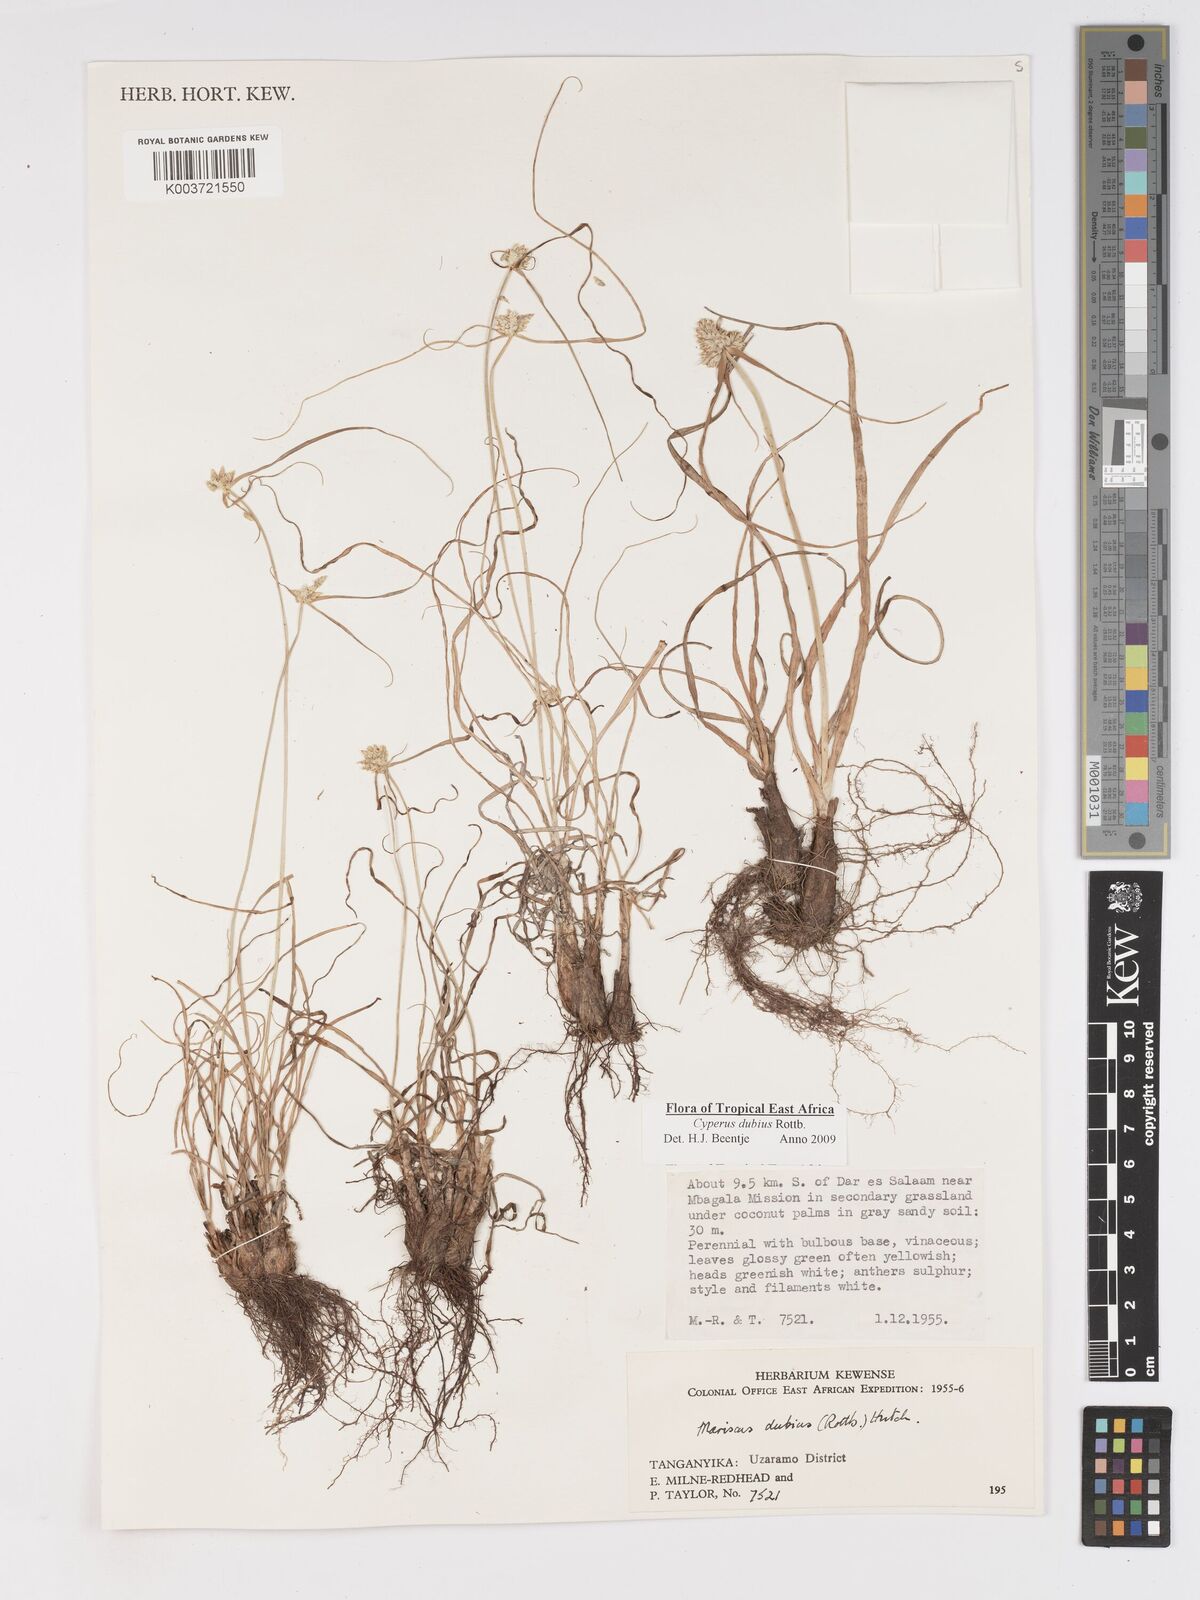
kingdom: Plantae
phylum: Tracheophyta
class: Liliopsida
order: Poales
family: Cyperaceae
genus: Cyperus
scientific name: Cyperus dubius
